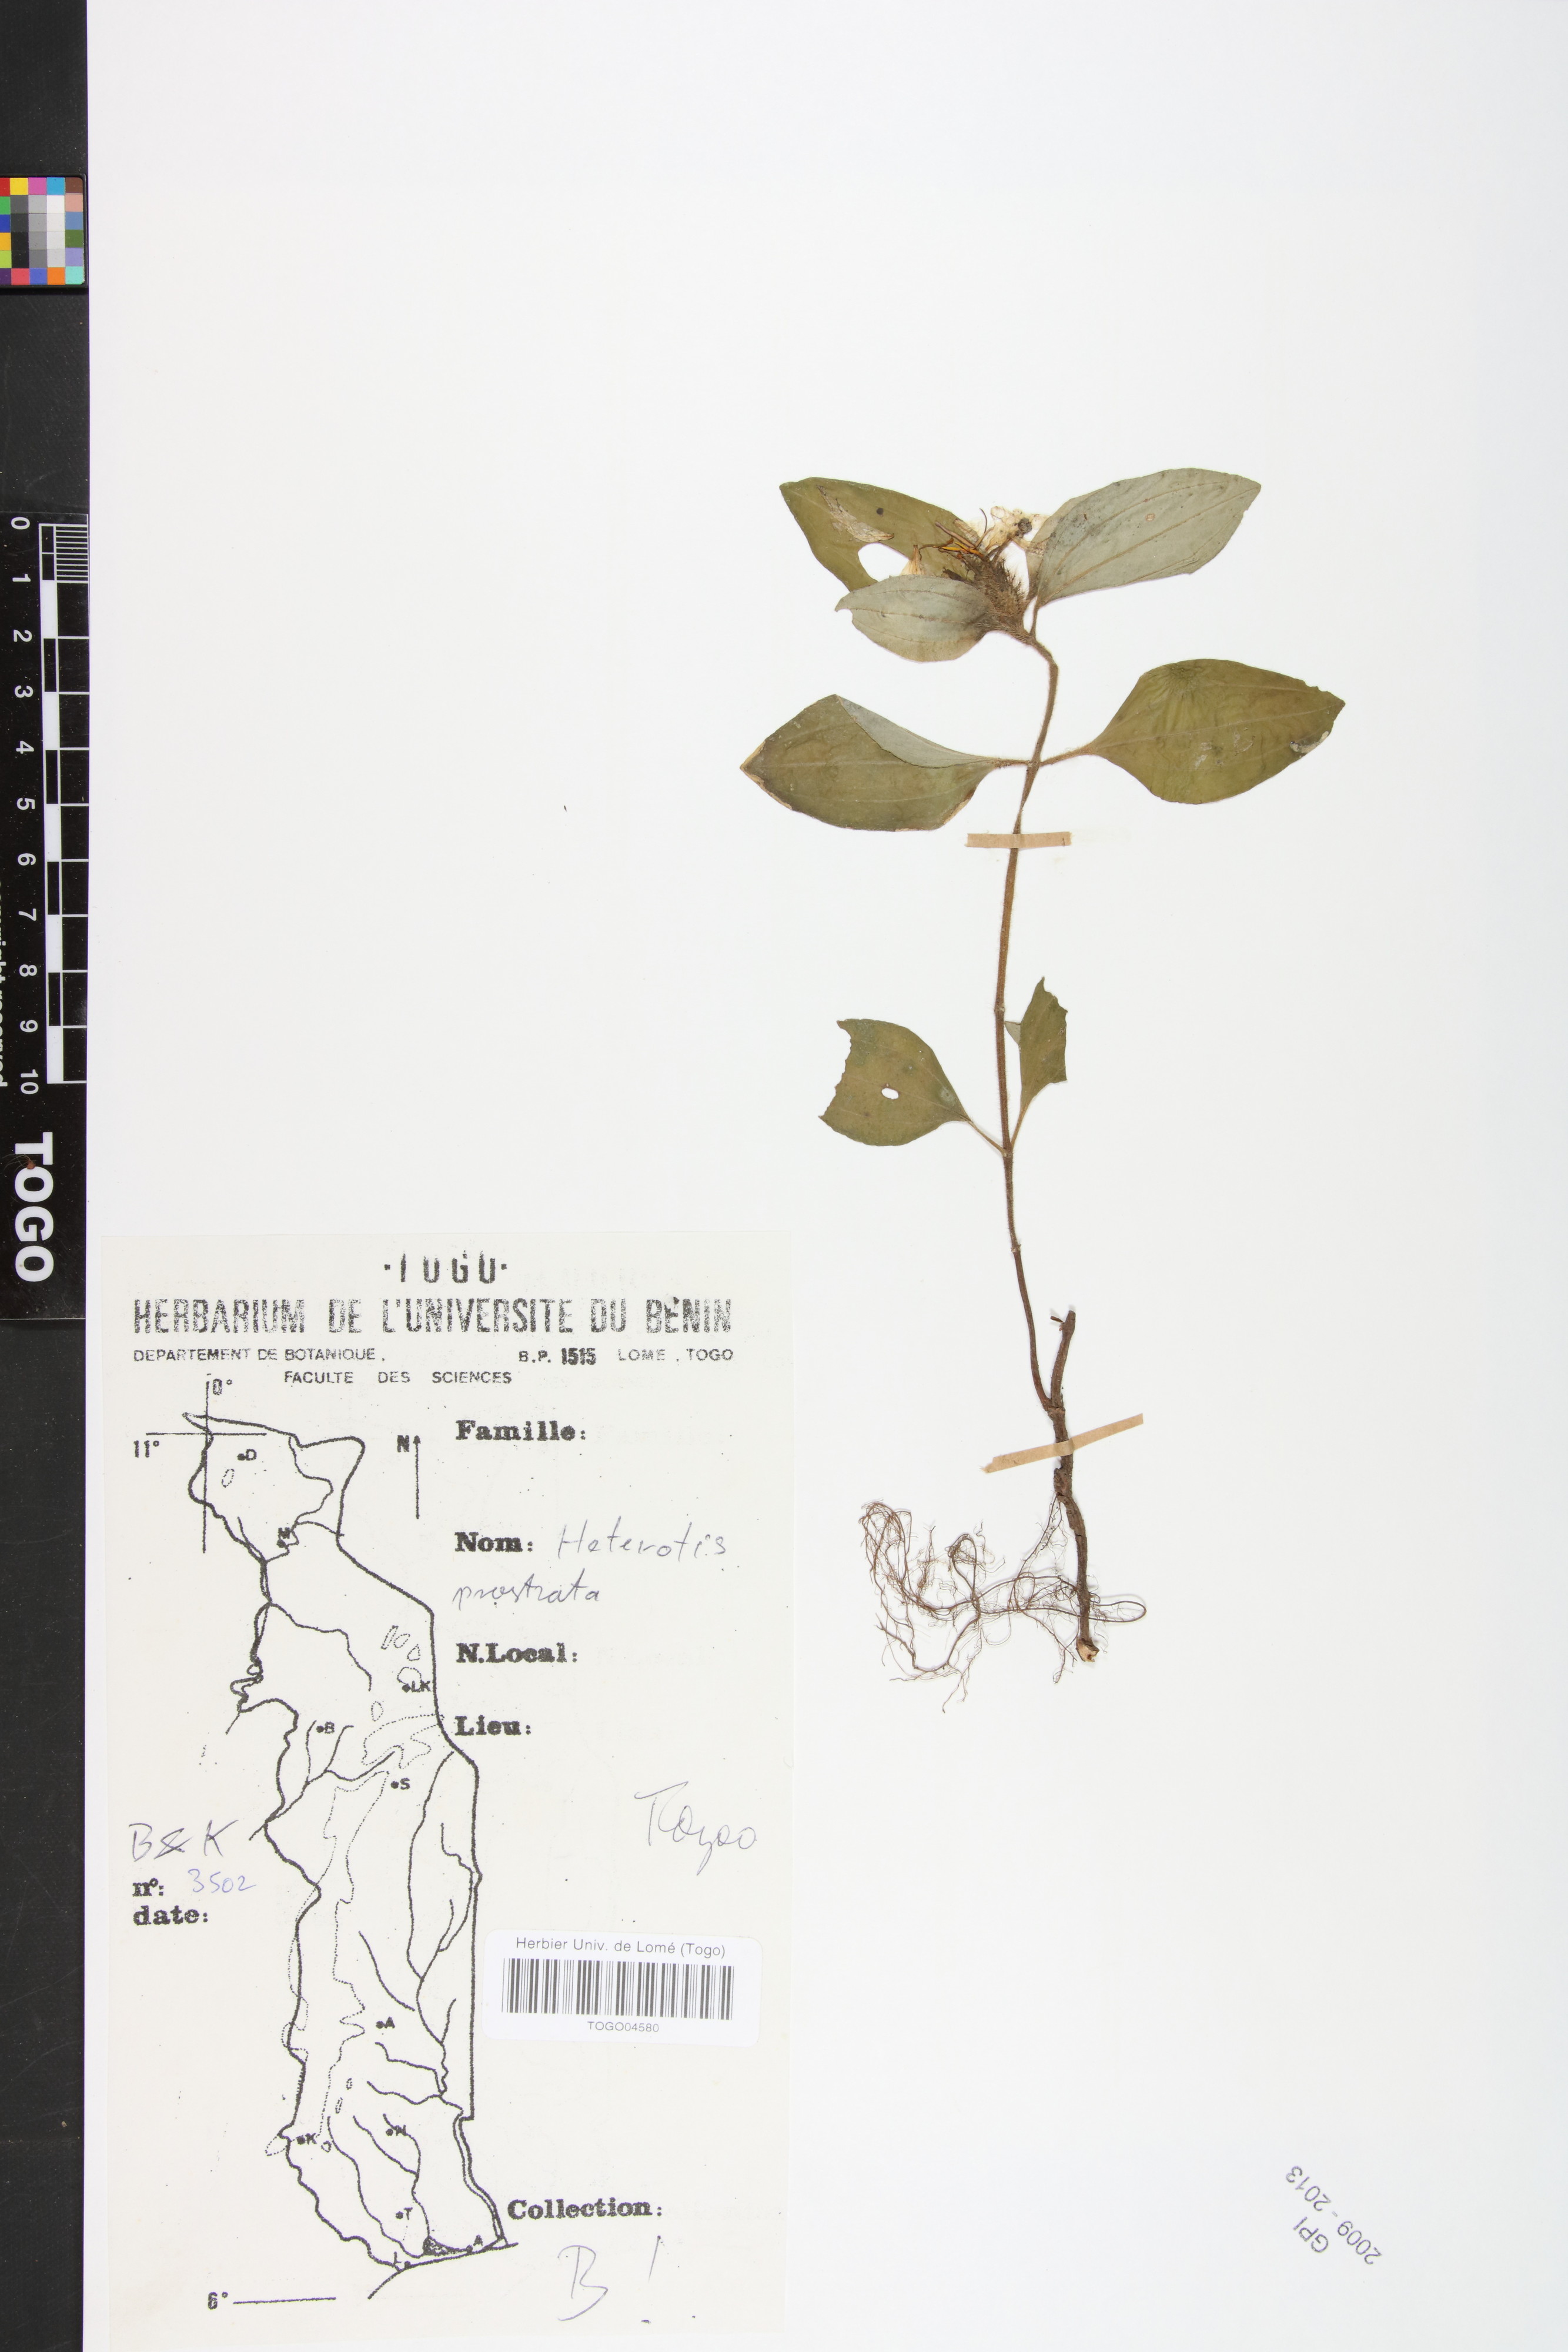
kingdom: Plantae
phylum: Tracheophyta
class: Magnoliopsida
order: Myrtales
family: Melastomataceae
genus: Heterotis
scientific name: Heterotis prostrata
